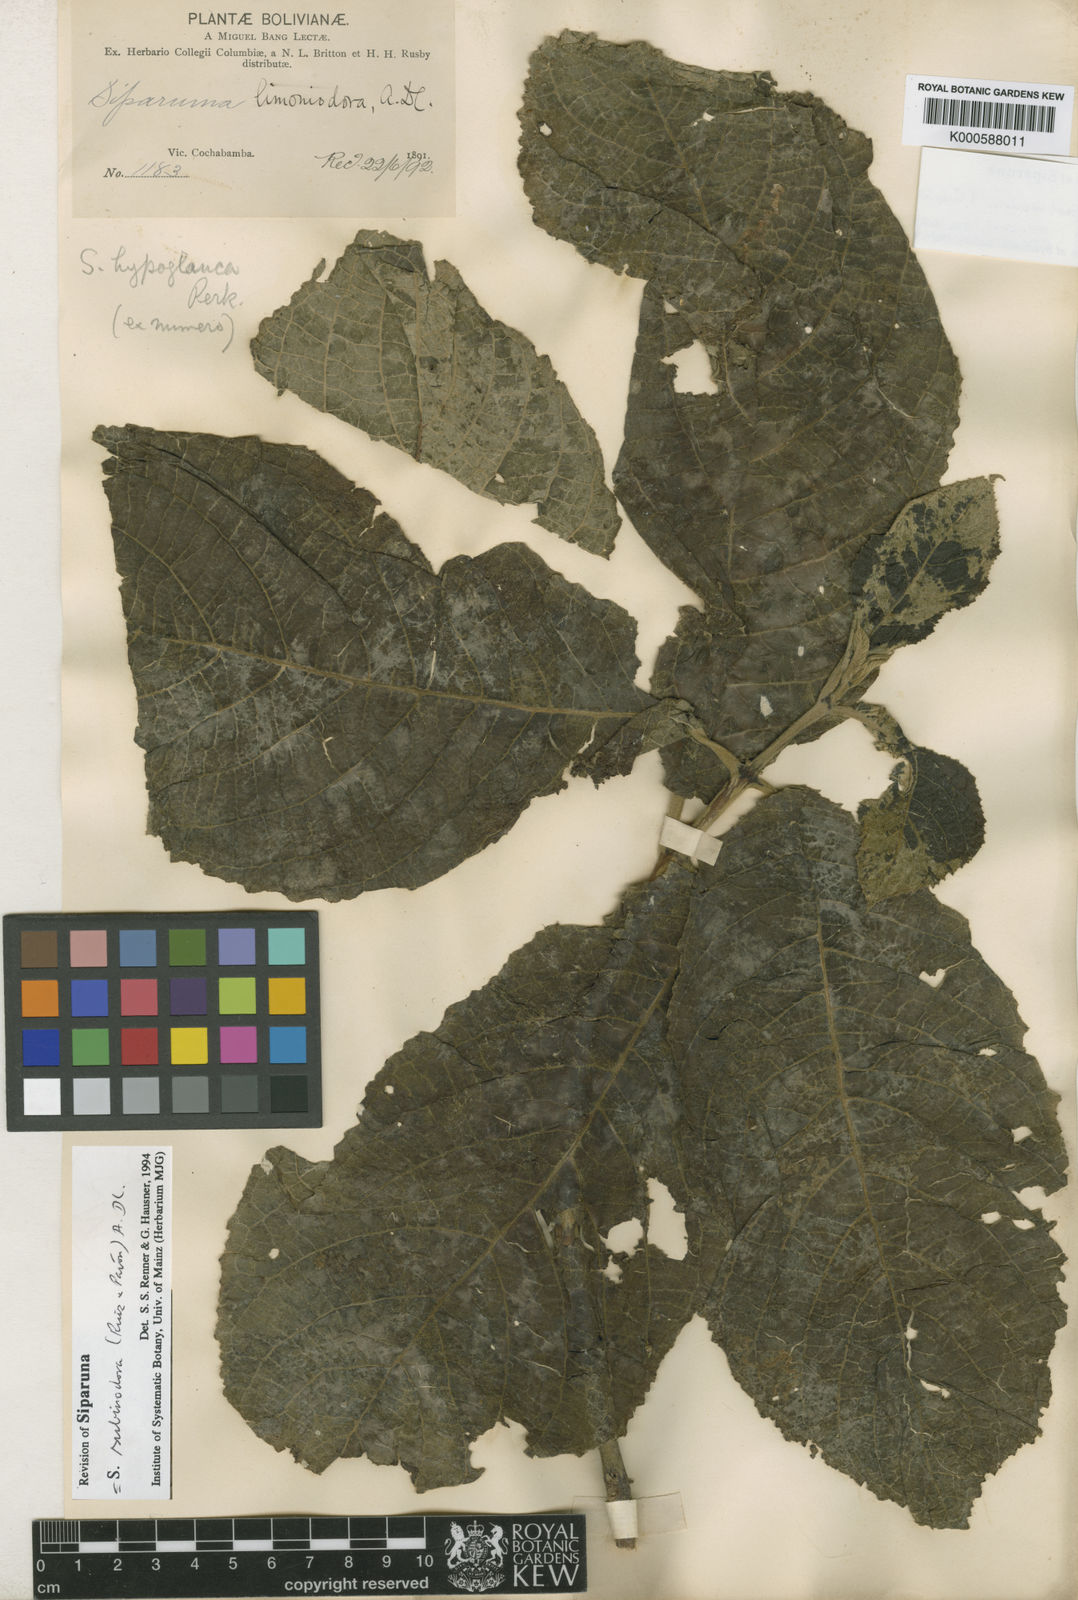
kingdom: Plantae
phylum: Tracheophyta
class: Magnoliopsida
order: Laurales
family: Siparunaceae
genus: Siparuna
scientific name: Siparuna subinodora
